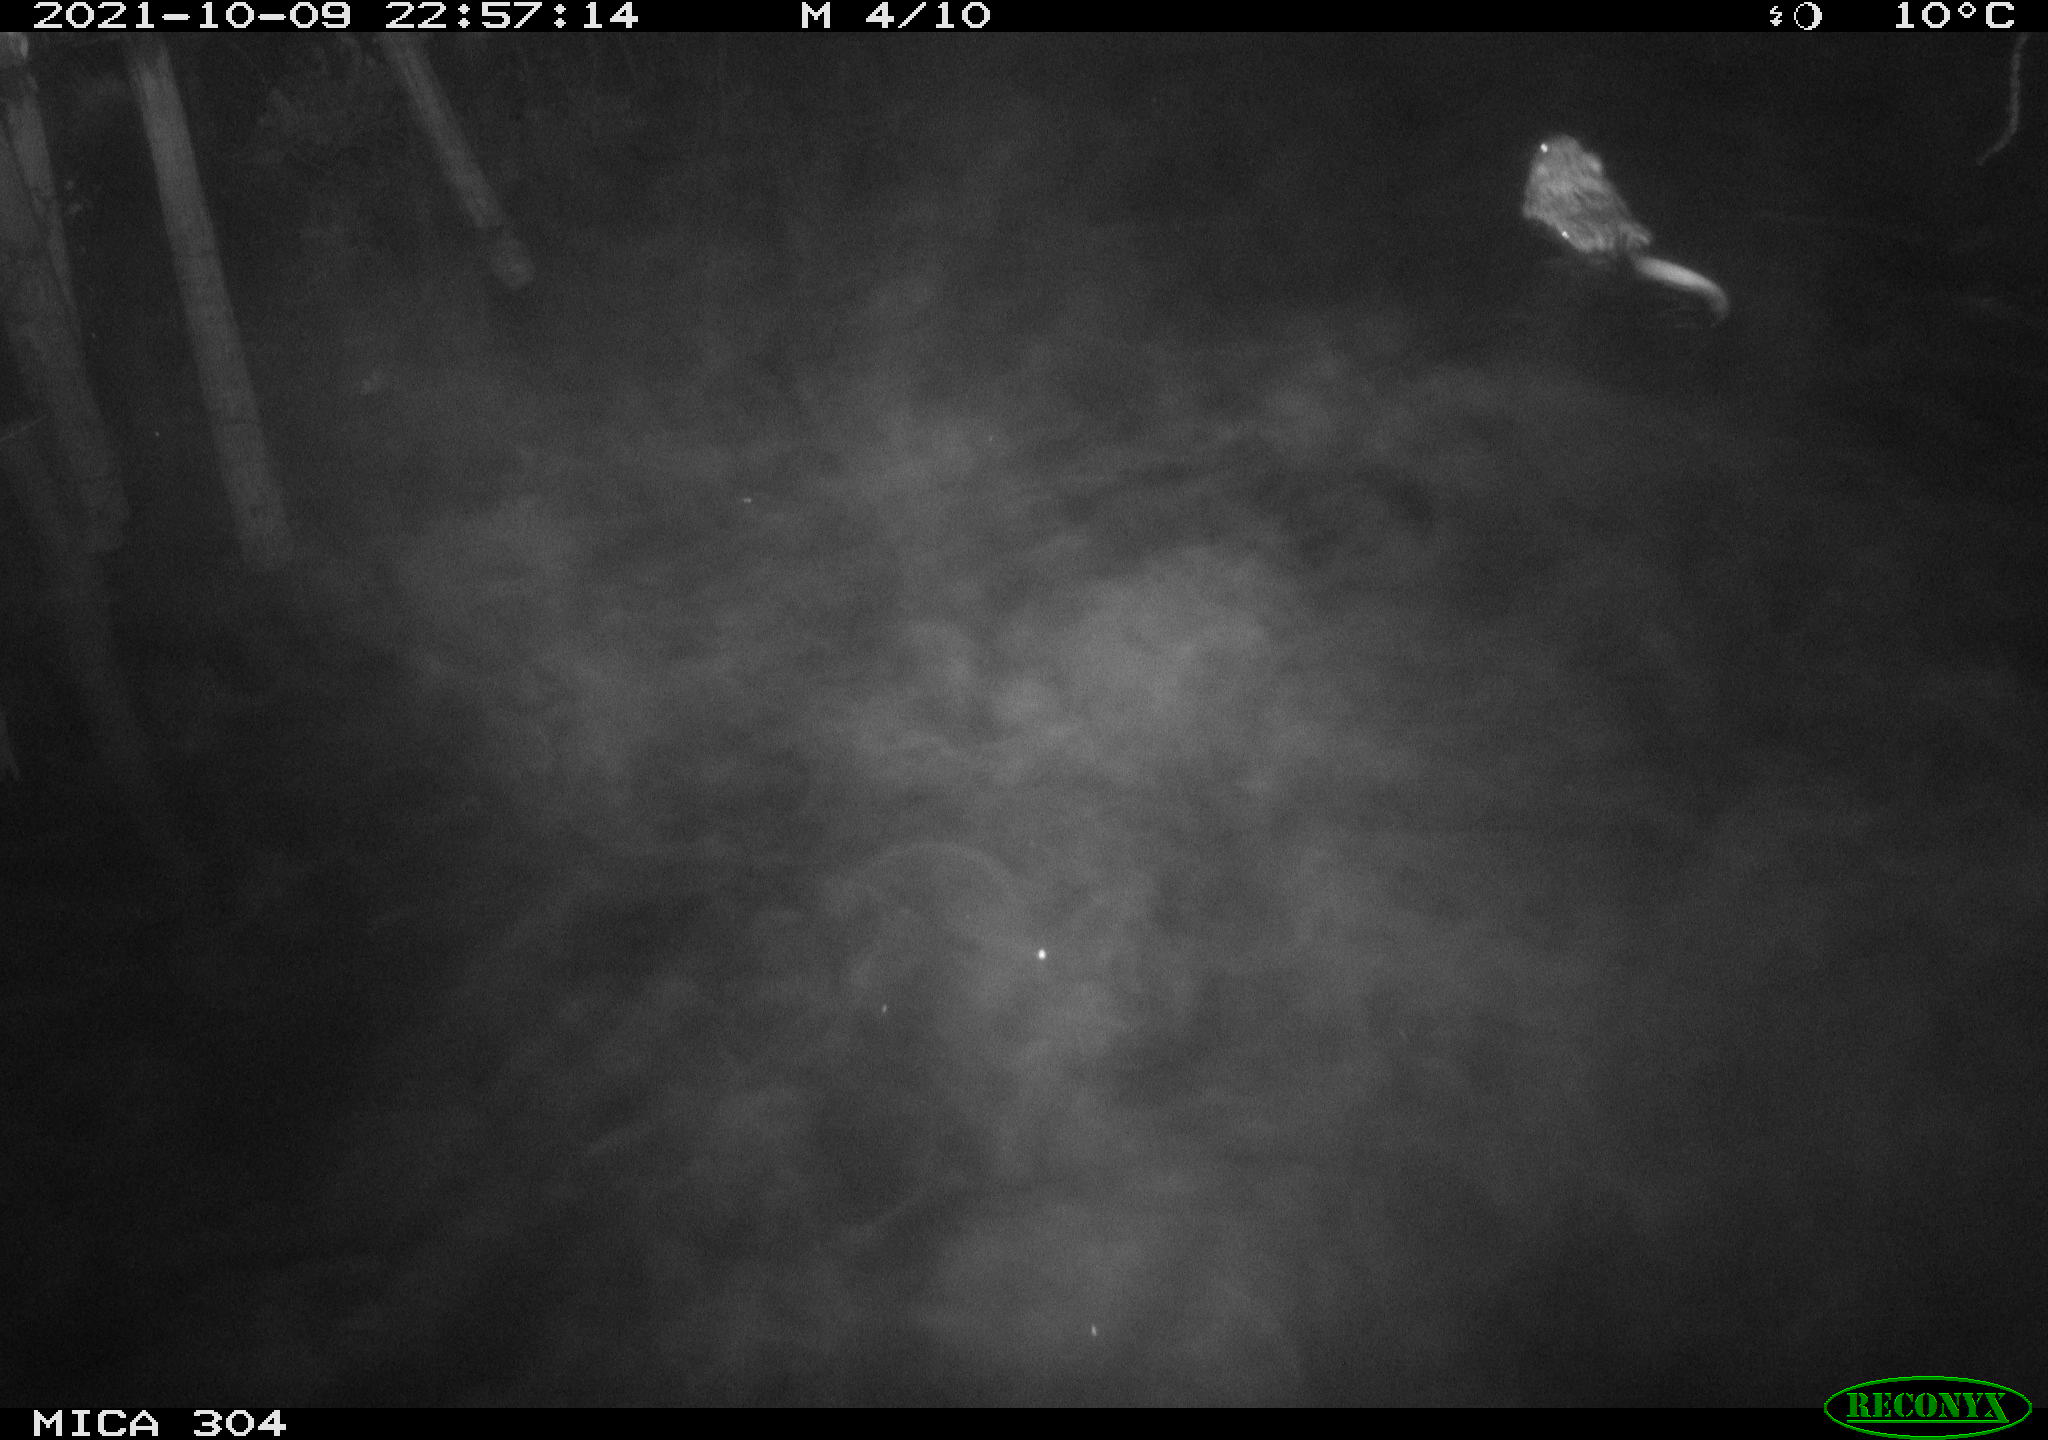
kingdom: Animalia
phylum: Chordata
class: Mammalia
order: Rodentia
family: Cricetidae
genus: Ondatra
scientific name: Ondatra zibethicus
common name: Muskrat
